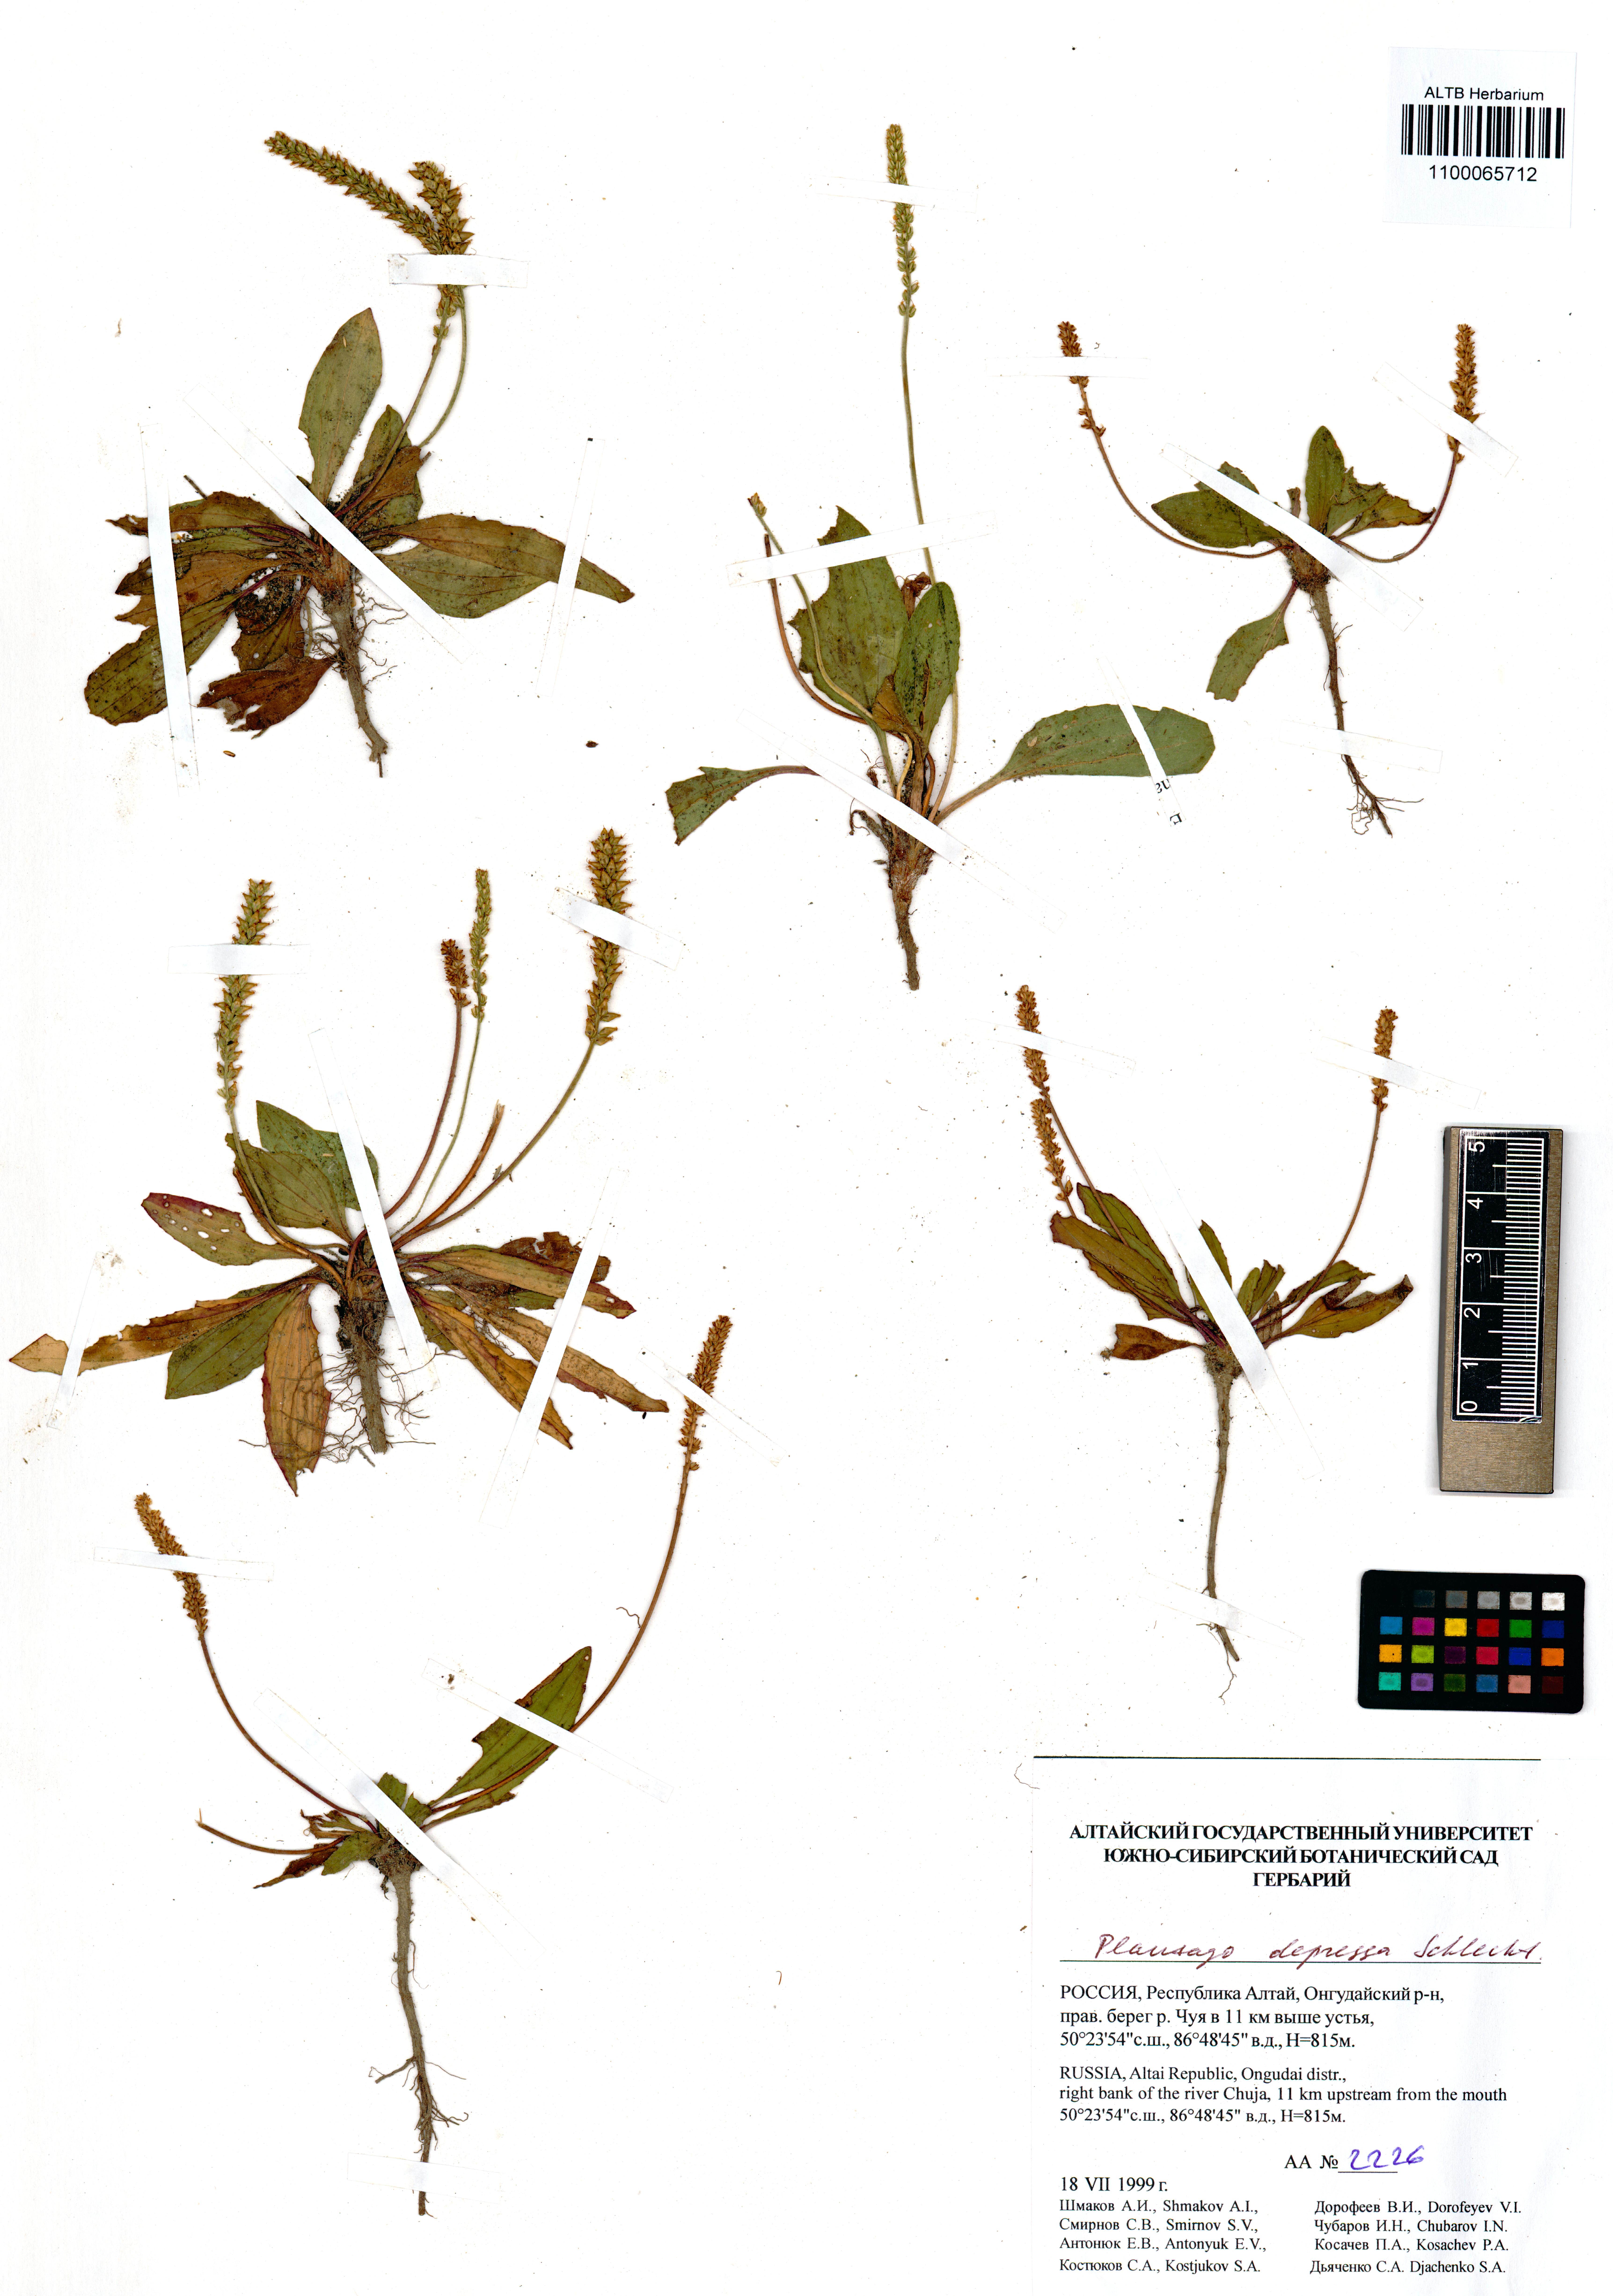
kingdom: Plantae
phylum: Tracheophyta
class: Magnoliopsida
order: Lamiales
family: Plantaginaceae
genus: Plantago
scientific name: Plantago depressa
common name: Depressed plantain
